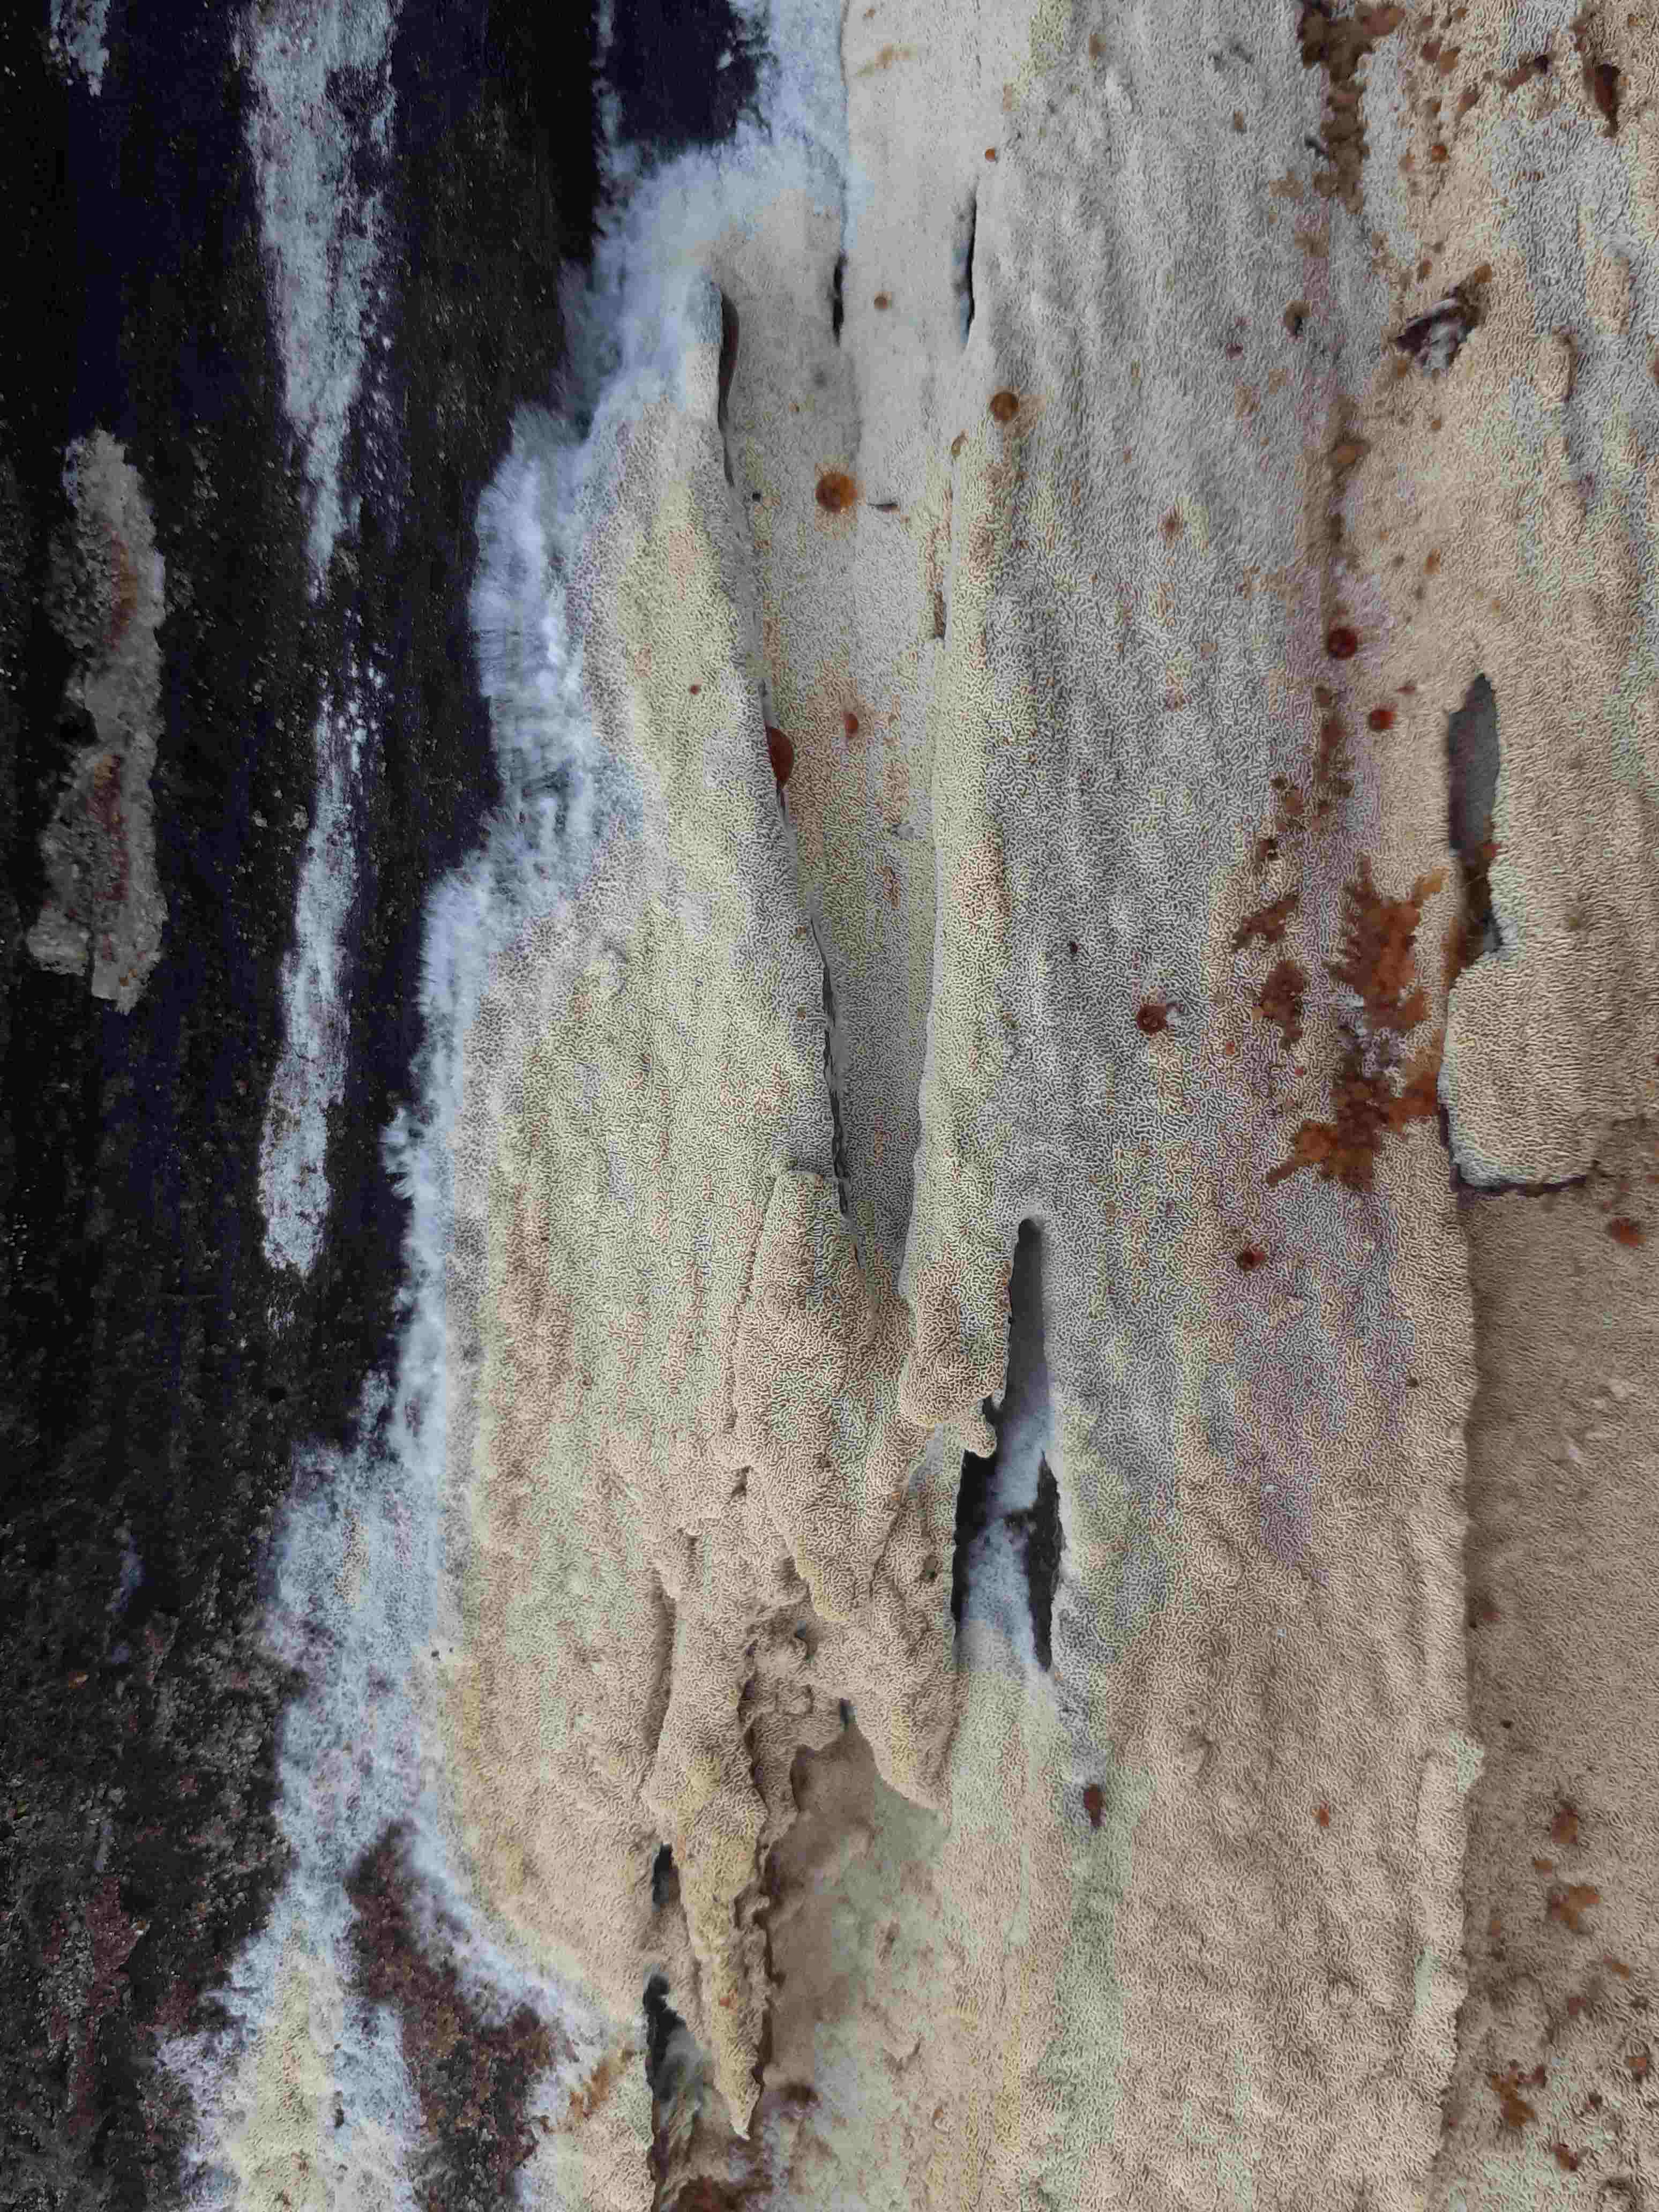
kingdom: Fungi
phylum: Basidiomycota
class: Agaricomycetes
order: Hymenochaetales
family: Schizoporaceae
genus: Xylodon
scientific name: Xylodon subtropicus
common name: labyrint-tandsvamp
